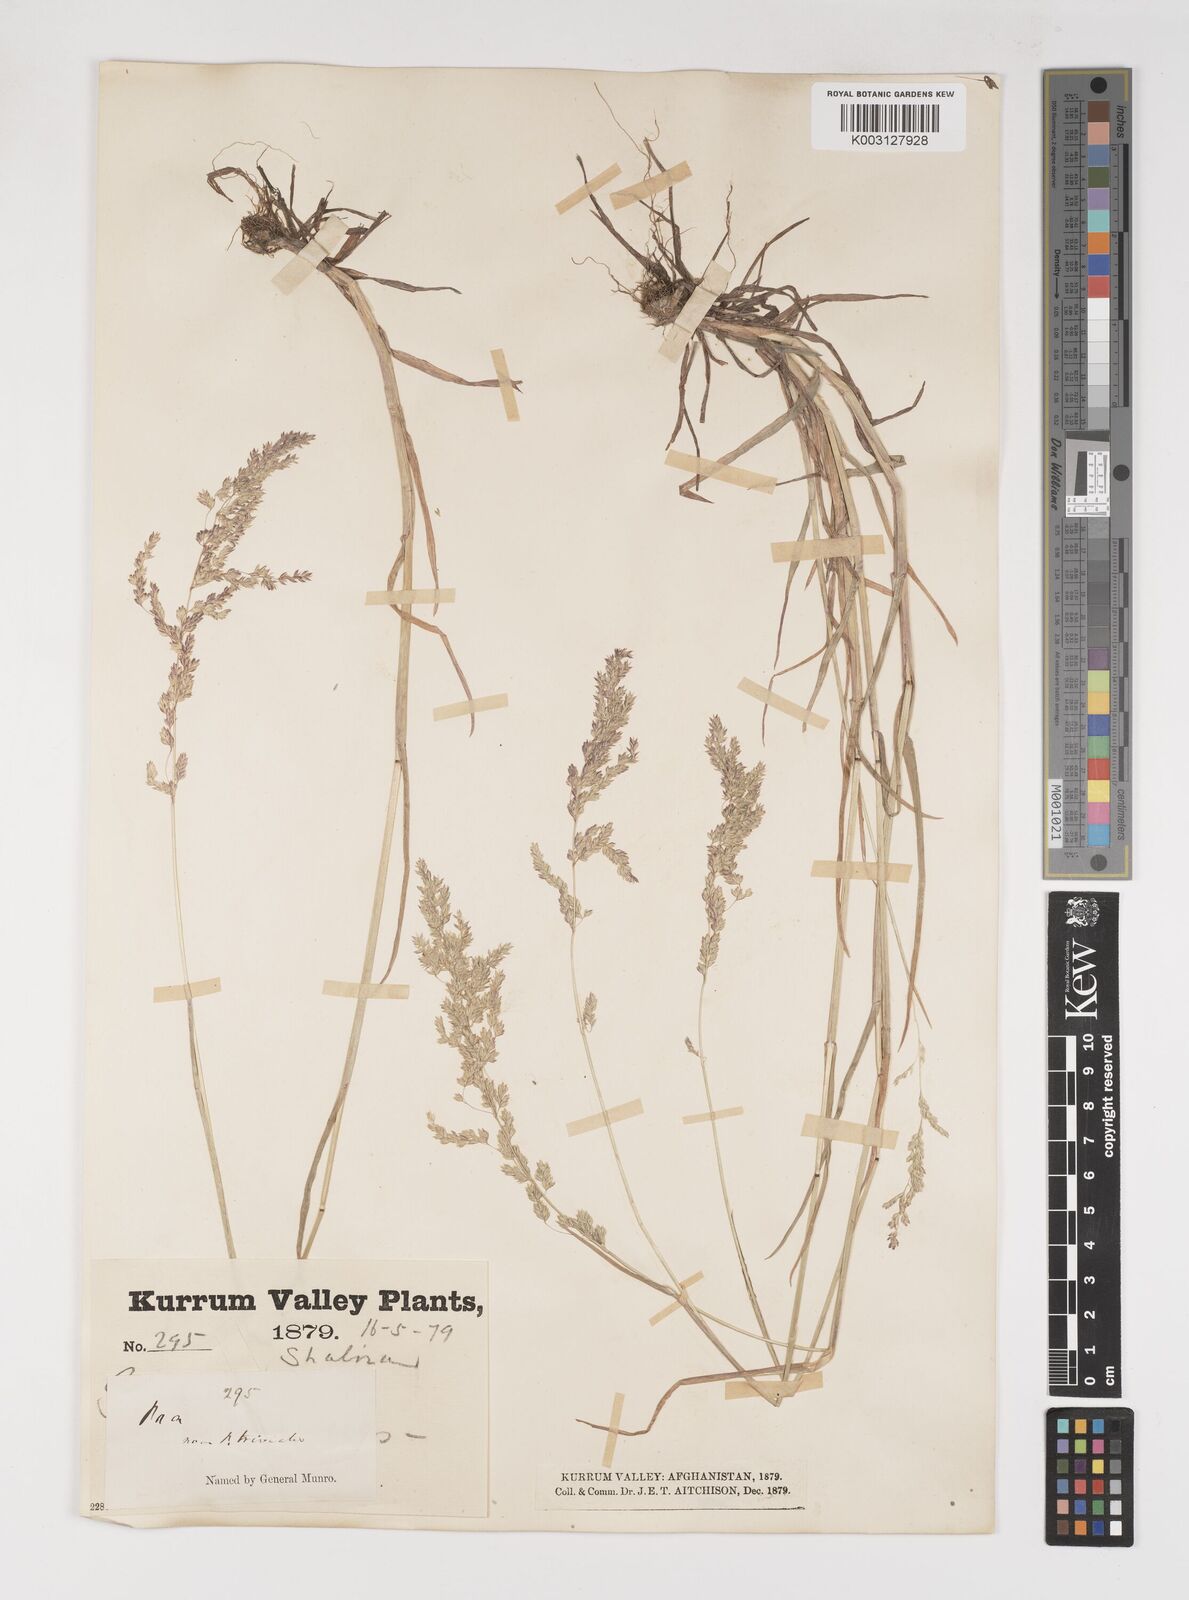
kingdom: Plantae
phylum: Tracheophyta
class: Liliopsida
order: Poales
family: Poaceae
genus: Poa
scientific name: Poa trivialis
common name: Rough bluegrass
